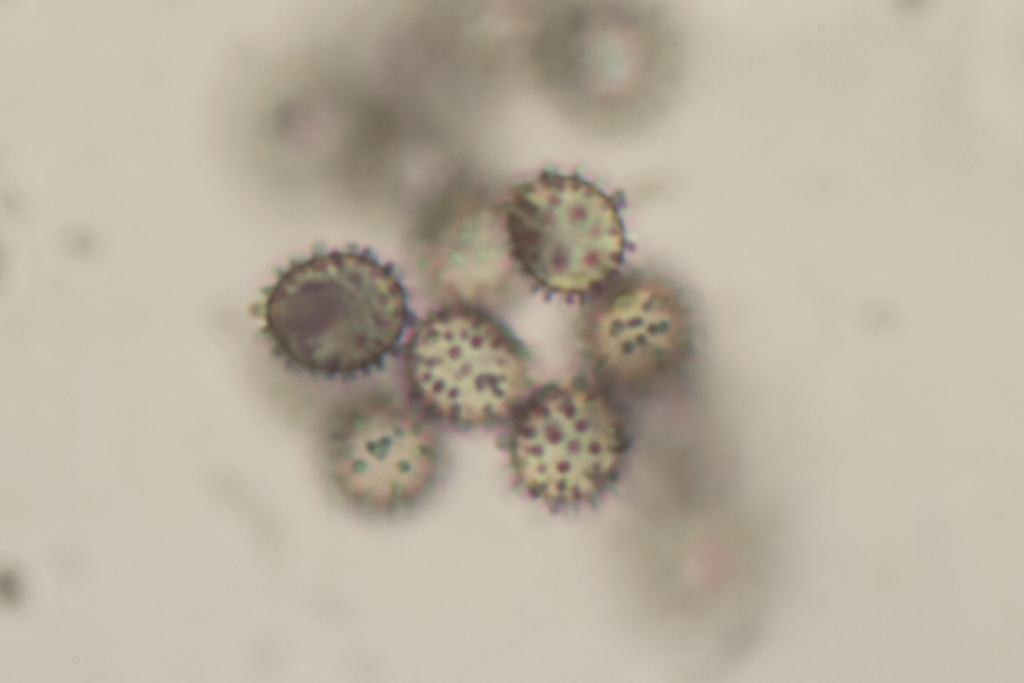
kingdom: Fungi
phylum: Basidiomycota
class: Agaricomycetes
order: Russulales
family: Russulaceae
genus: Russula
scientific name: Russula risigallina
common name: abrikos-skørhat
